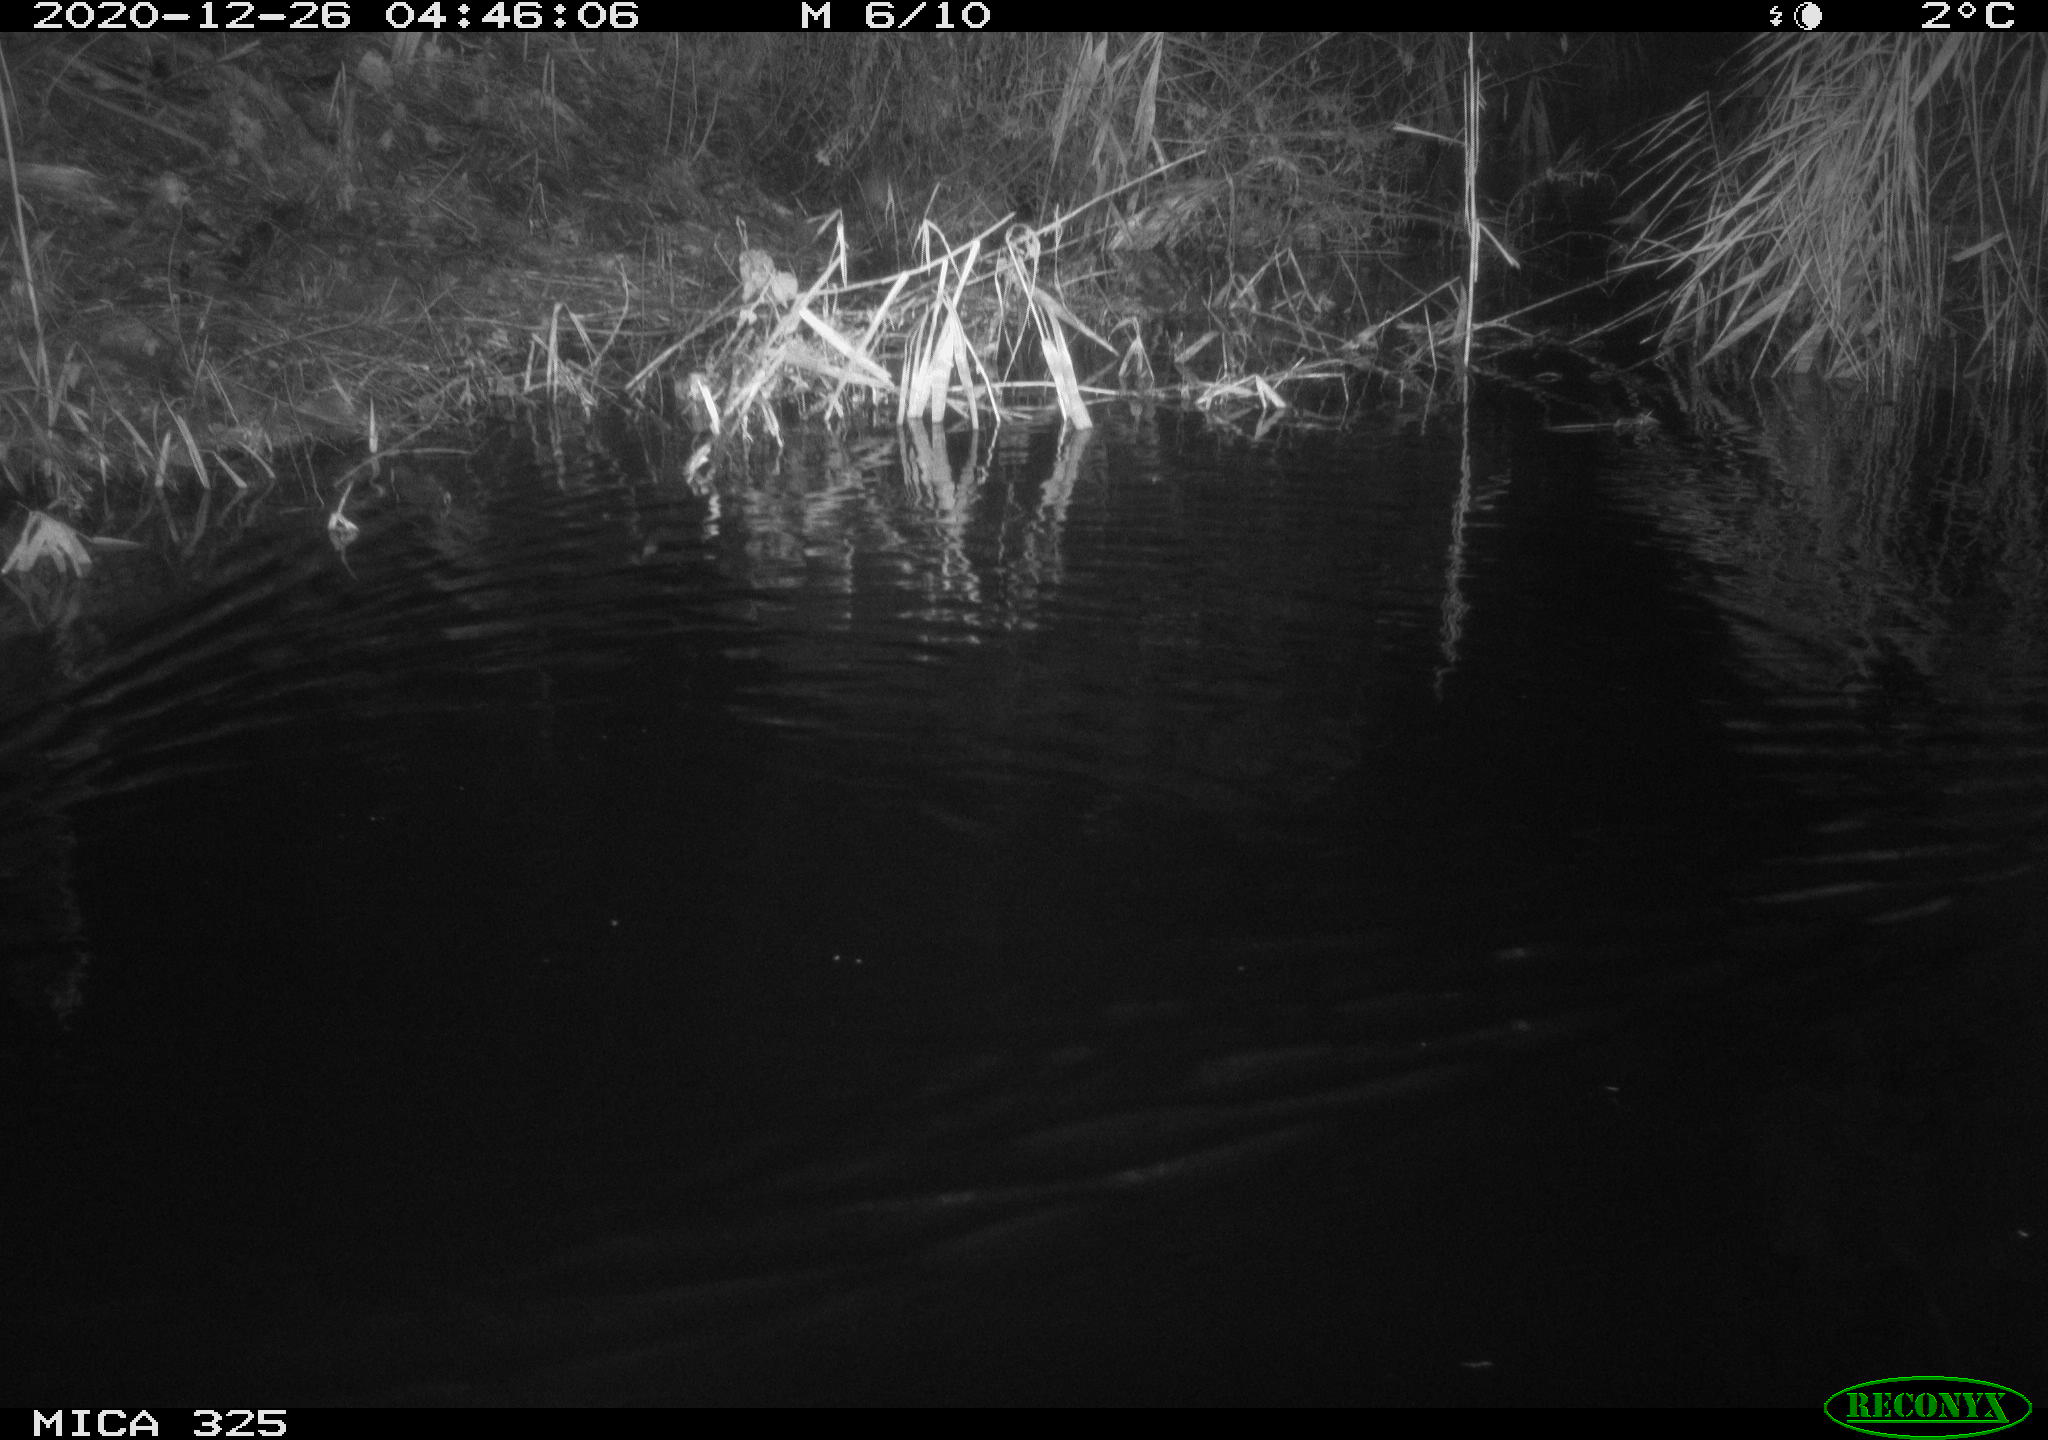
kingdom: Animalia
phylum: Chordata
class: Mammalia
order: Rodentia
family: Cricetidae
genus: Ondatra
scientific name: Ondatra zibethicus
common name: Muskrat
